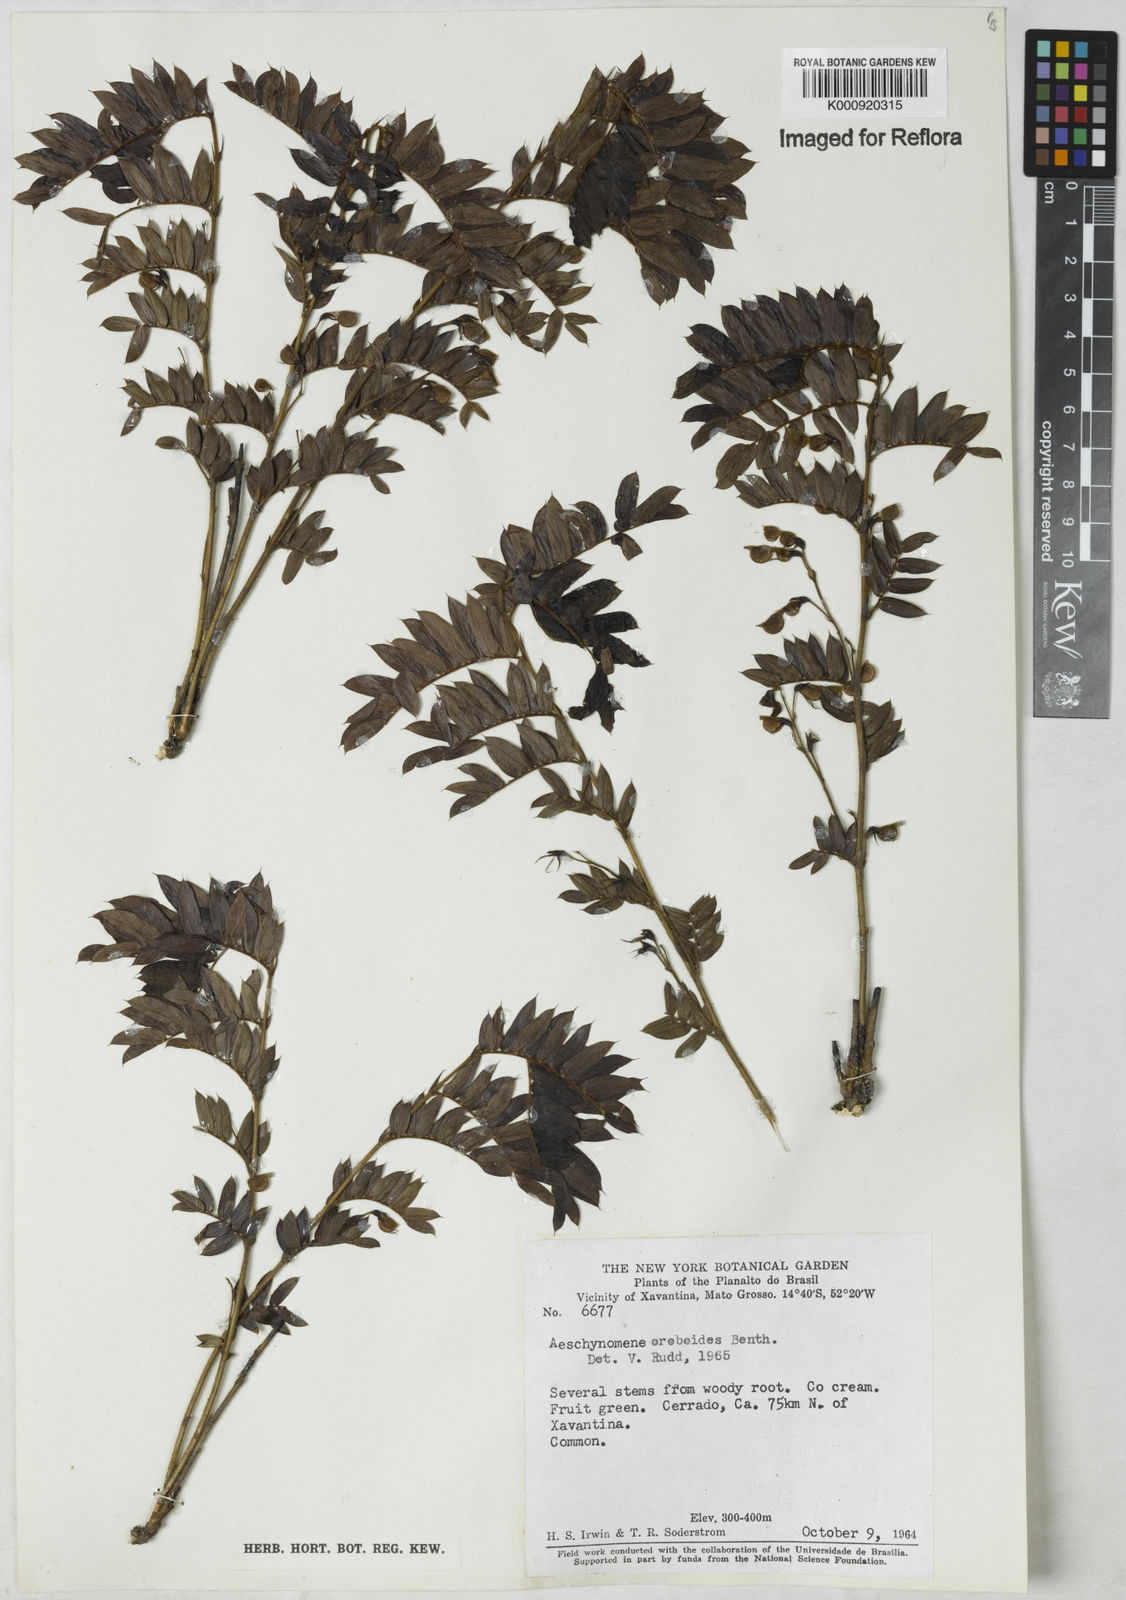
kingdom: Plantae
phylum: Tracheophyta
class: Magnoliopsida
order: Fabales
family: Fabaceae
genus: Ctenodon
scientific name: Ctenodon oroboides
